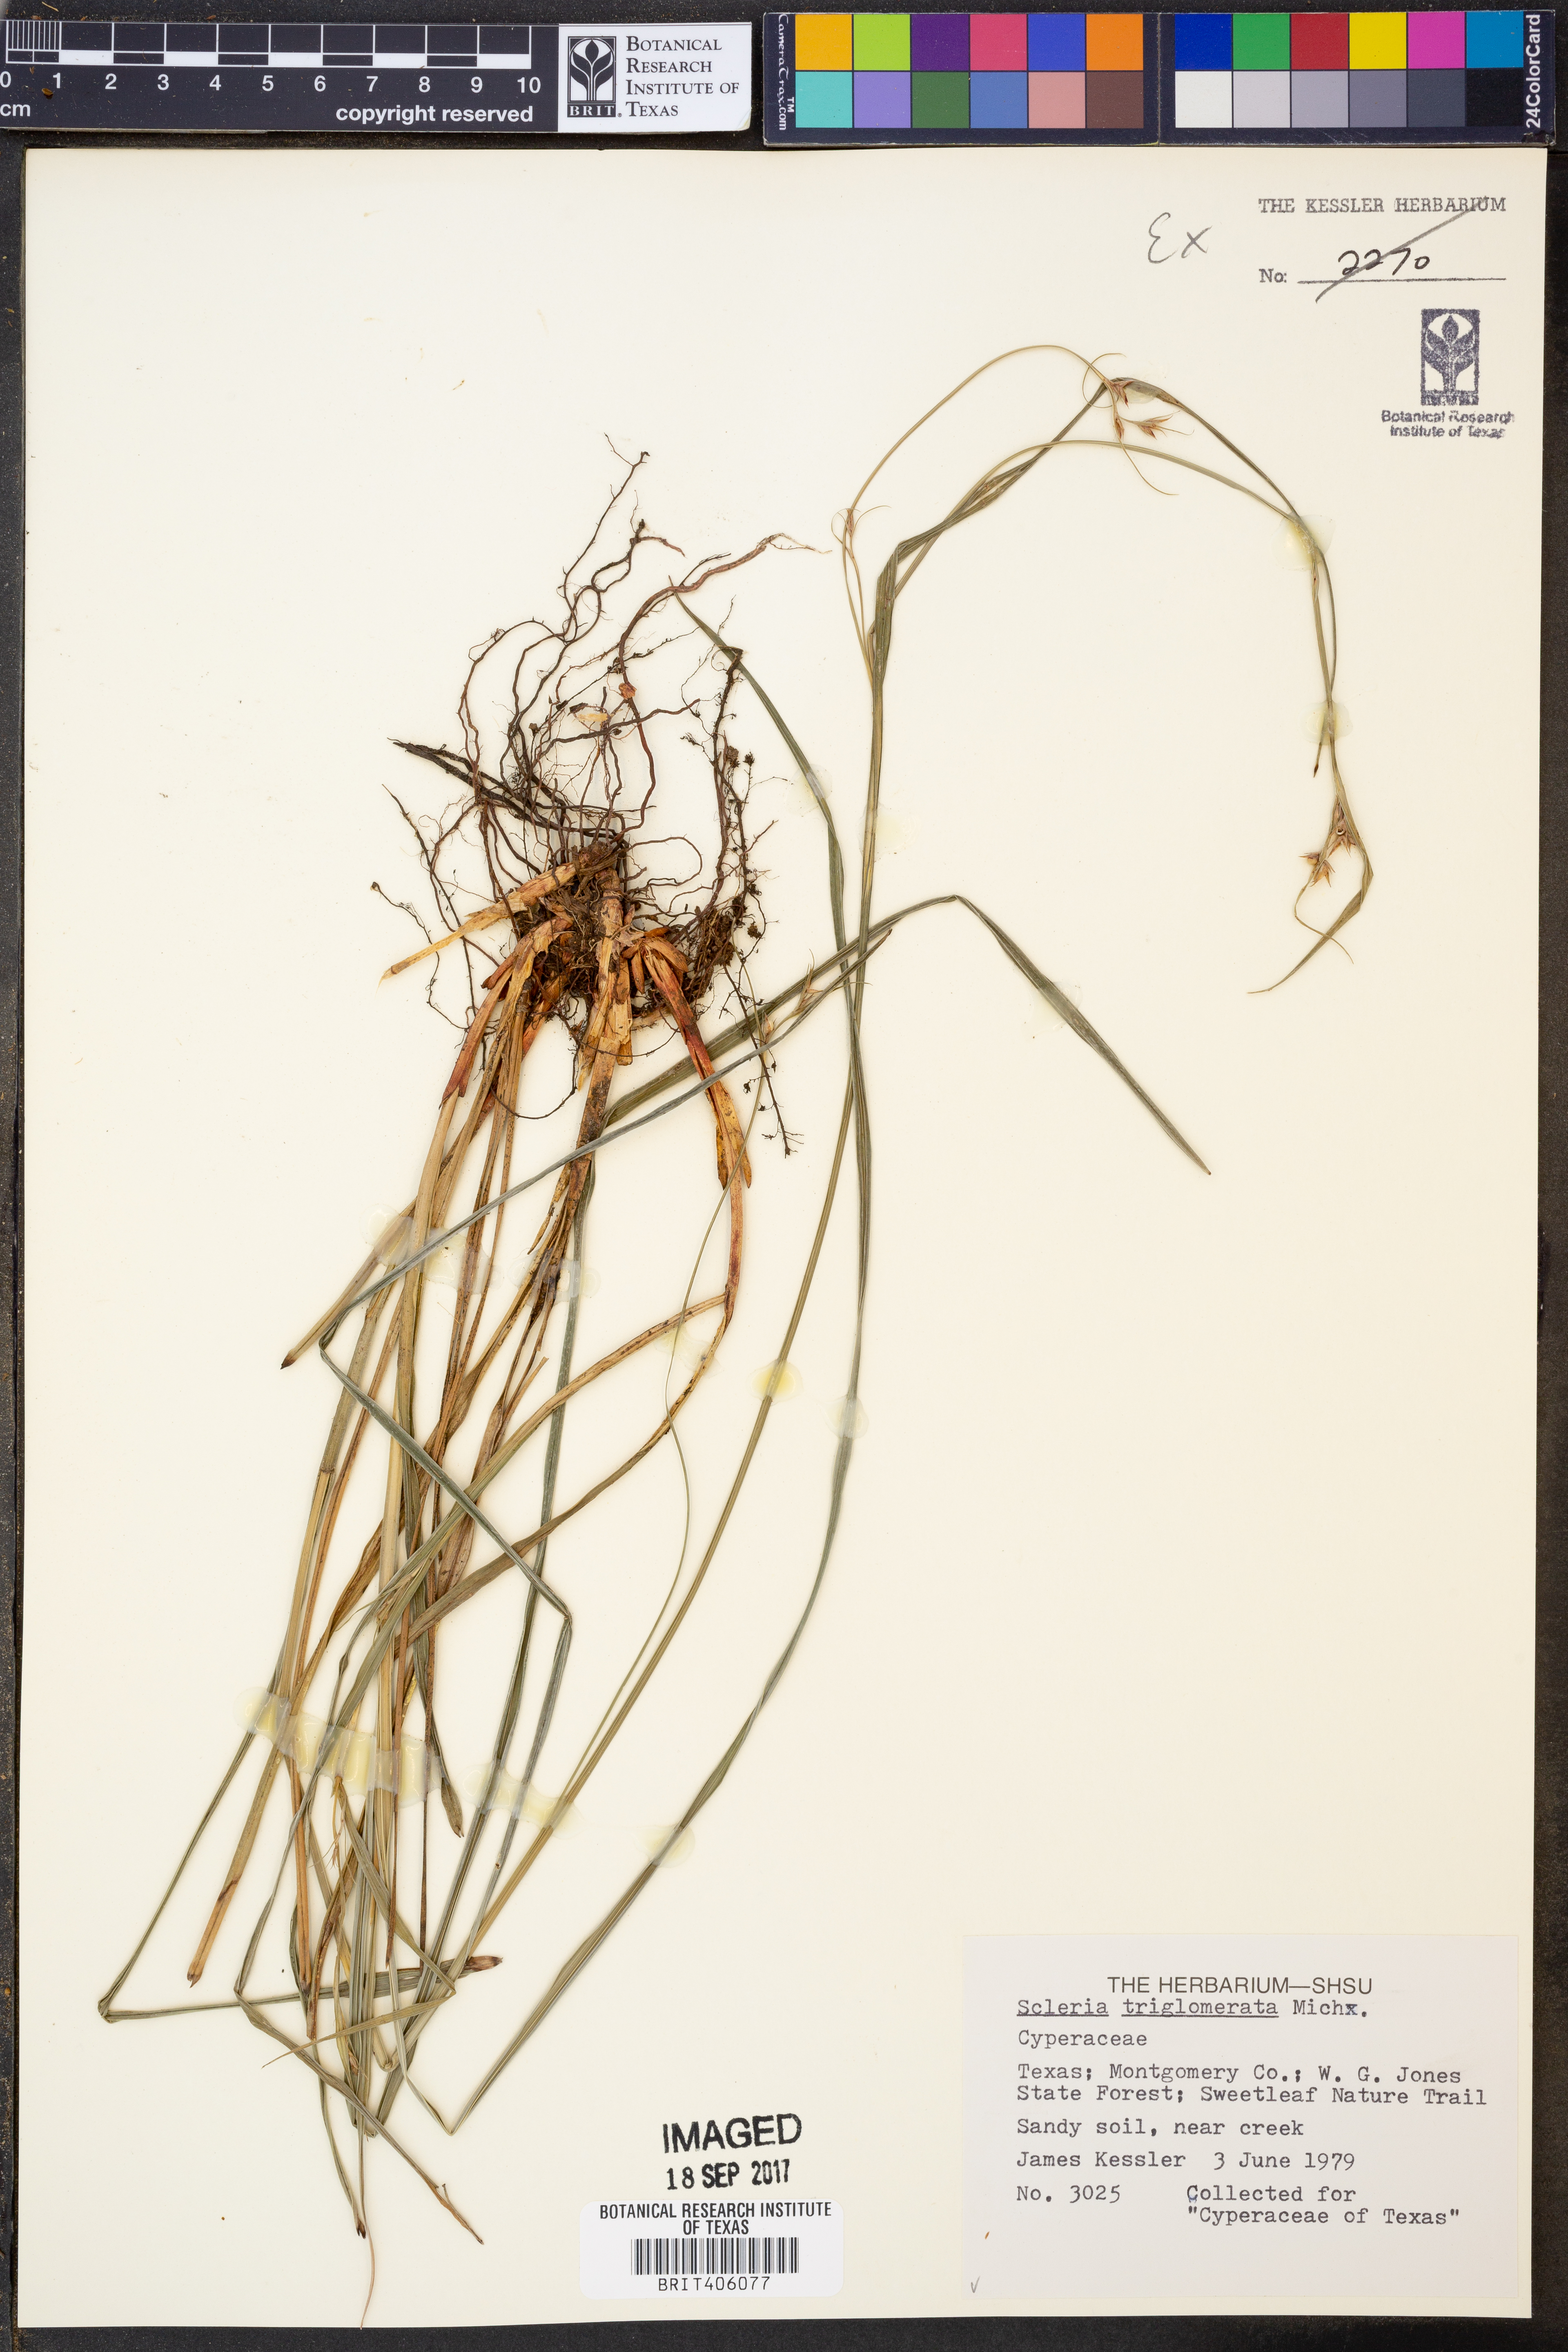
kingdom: Plantae
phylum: Tracheophyta
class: Liliopsida
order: Poales
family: Cyperaceae
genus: Scleria
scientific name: Scleria triglomerata
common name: Whip nutrush
